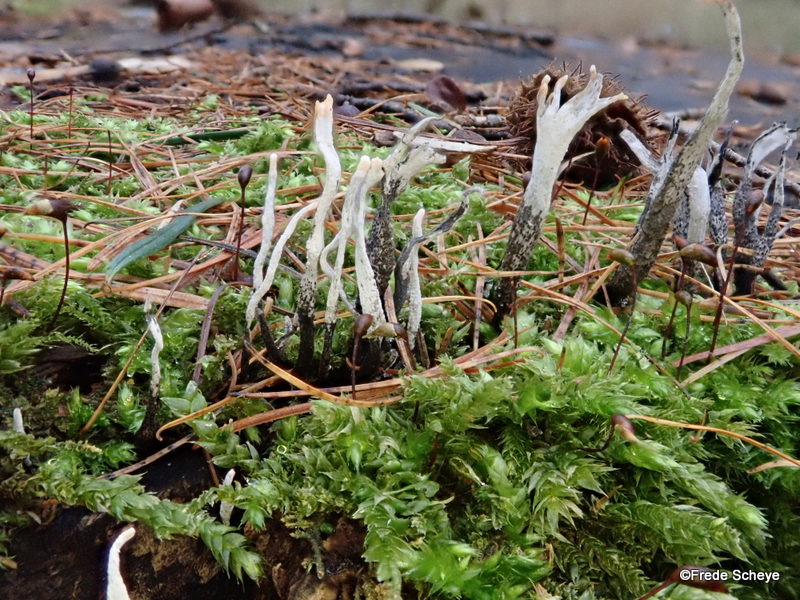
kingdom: Fungi
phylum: Ascomycota
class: Sordariomycetes
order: Xylariales
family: Xylariaceae
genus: Xylaria
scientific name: Xylaria hypoxylon
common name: grenet stødsvamp
